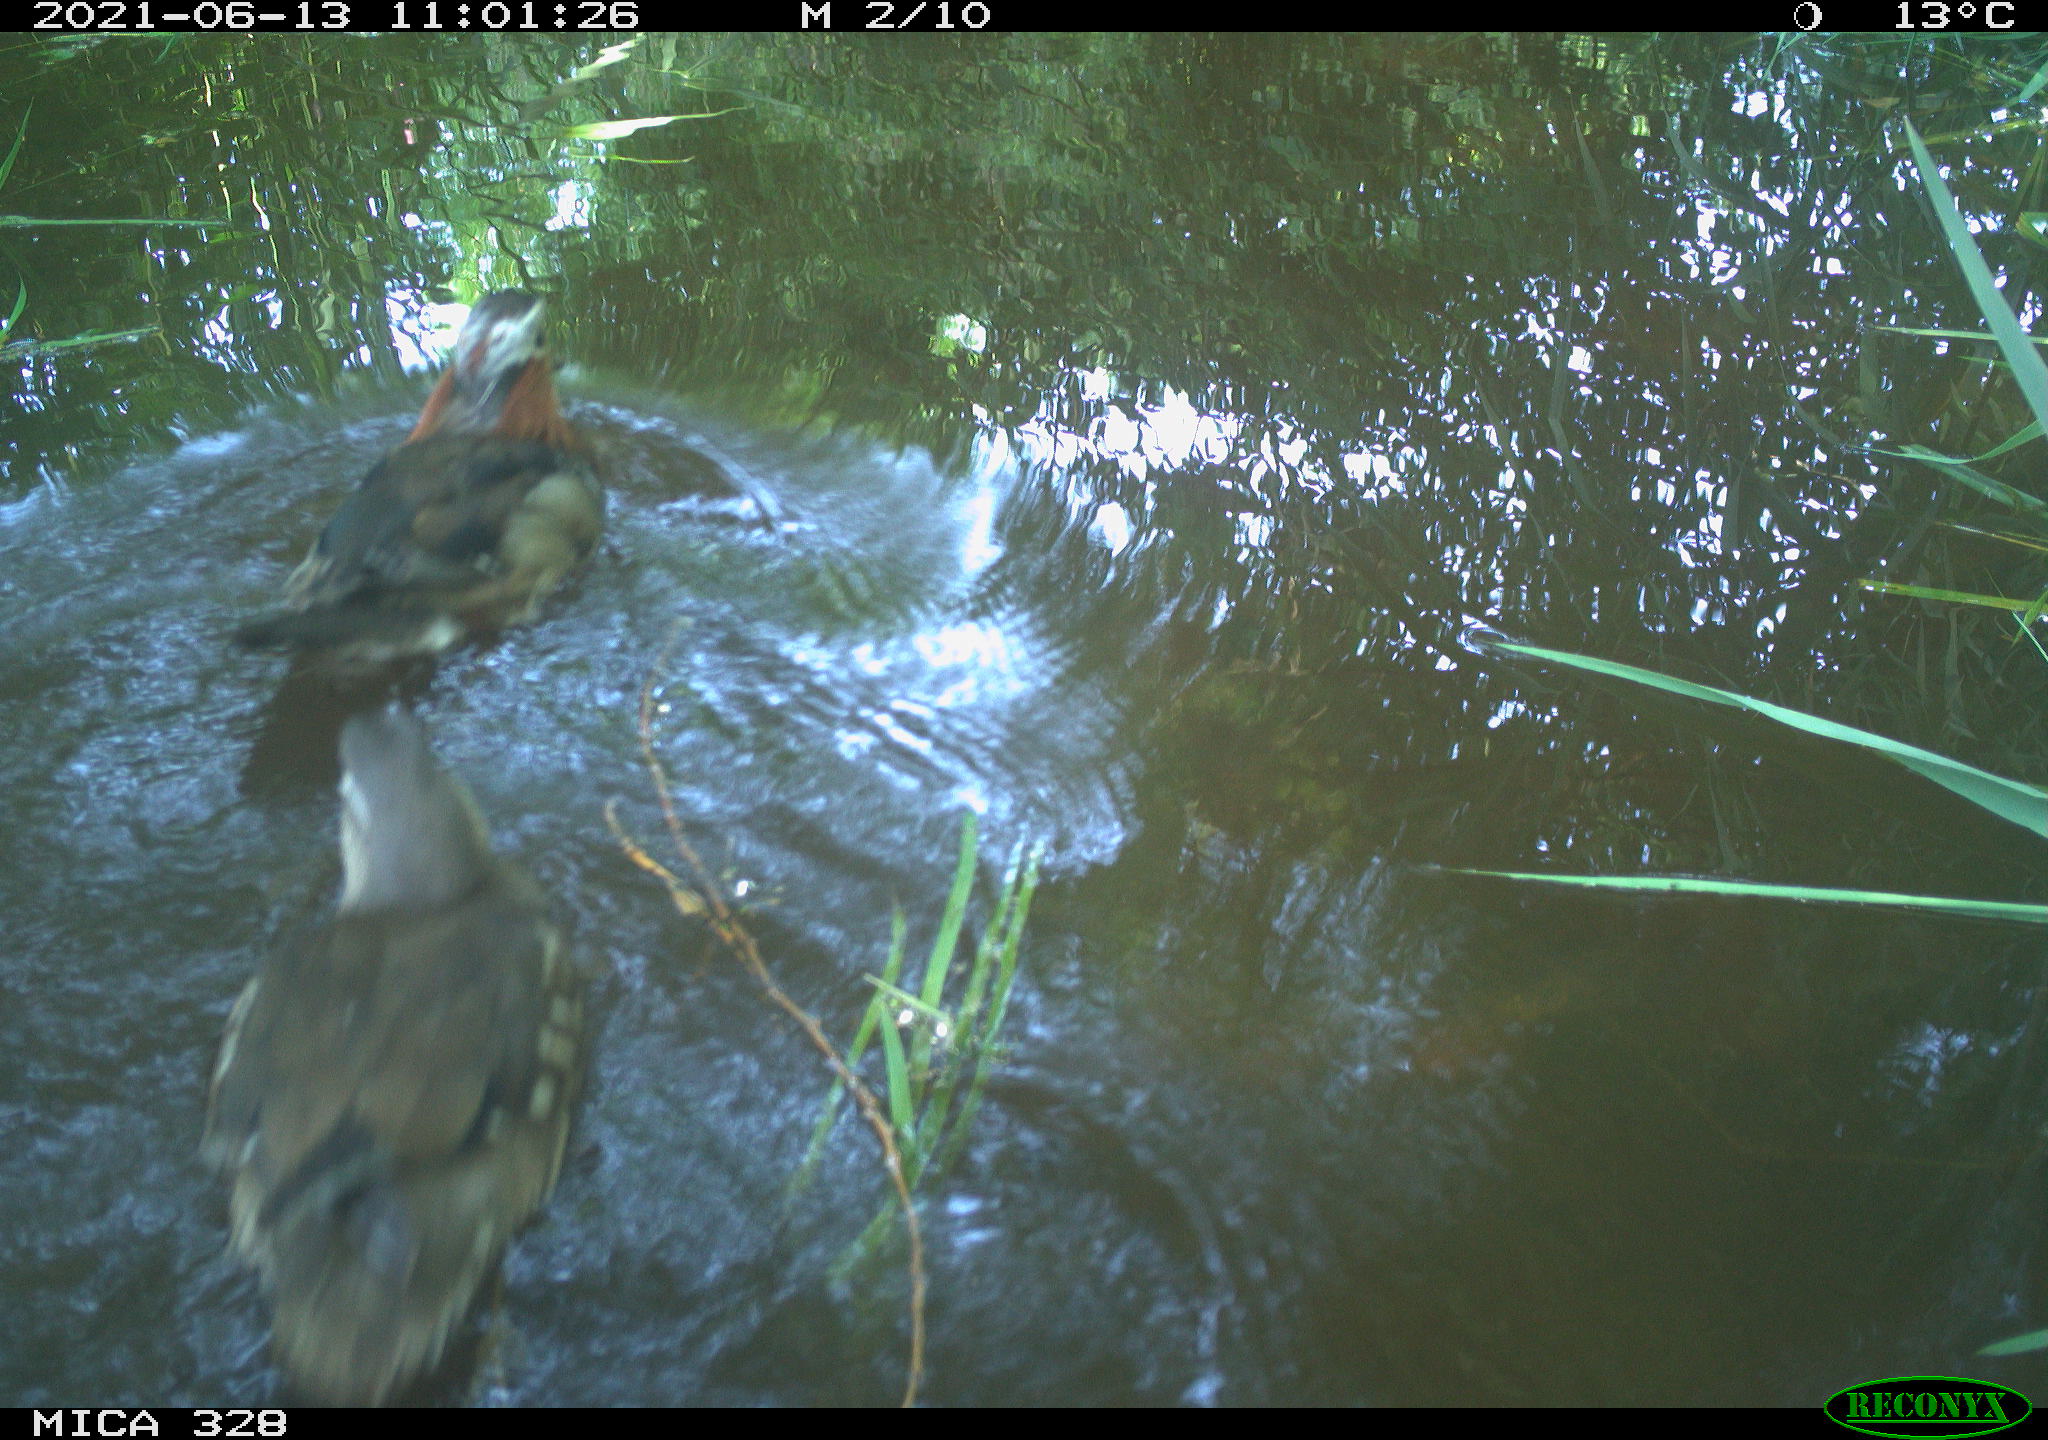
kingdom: Animalia
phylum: Chordata
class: Aves
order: Anseriformes
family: Anatidae
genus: Aix
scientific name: Aix galericulata
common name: Mandarin duck
